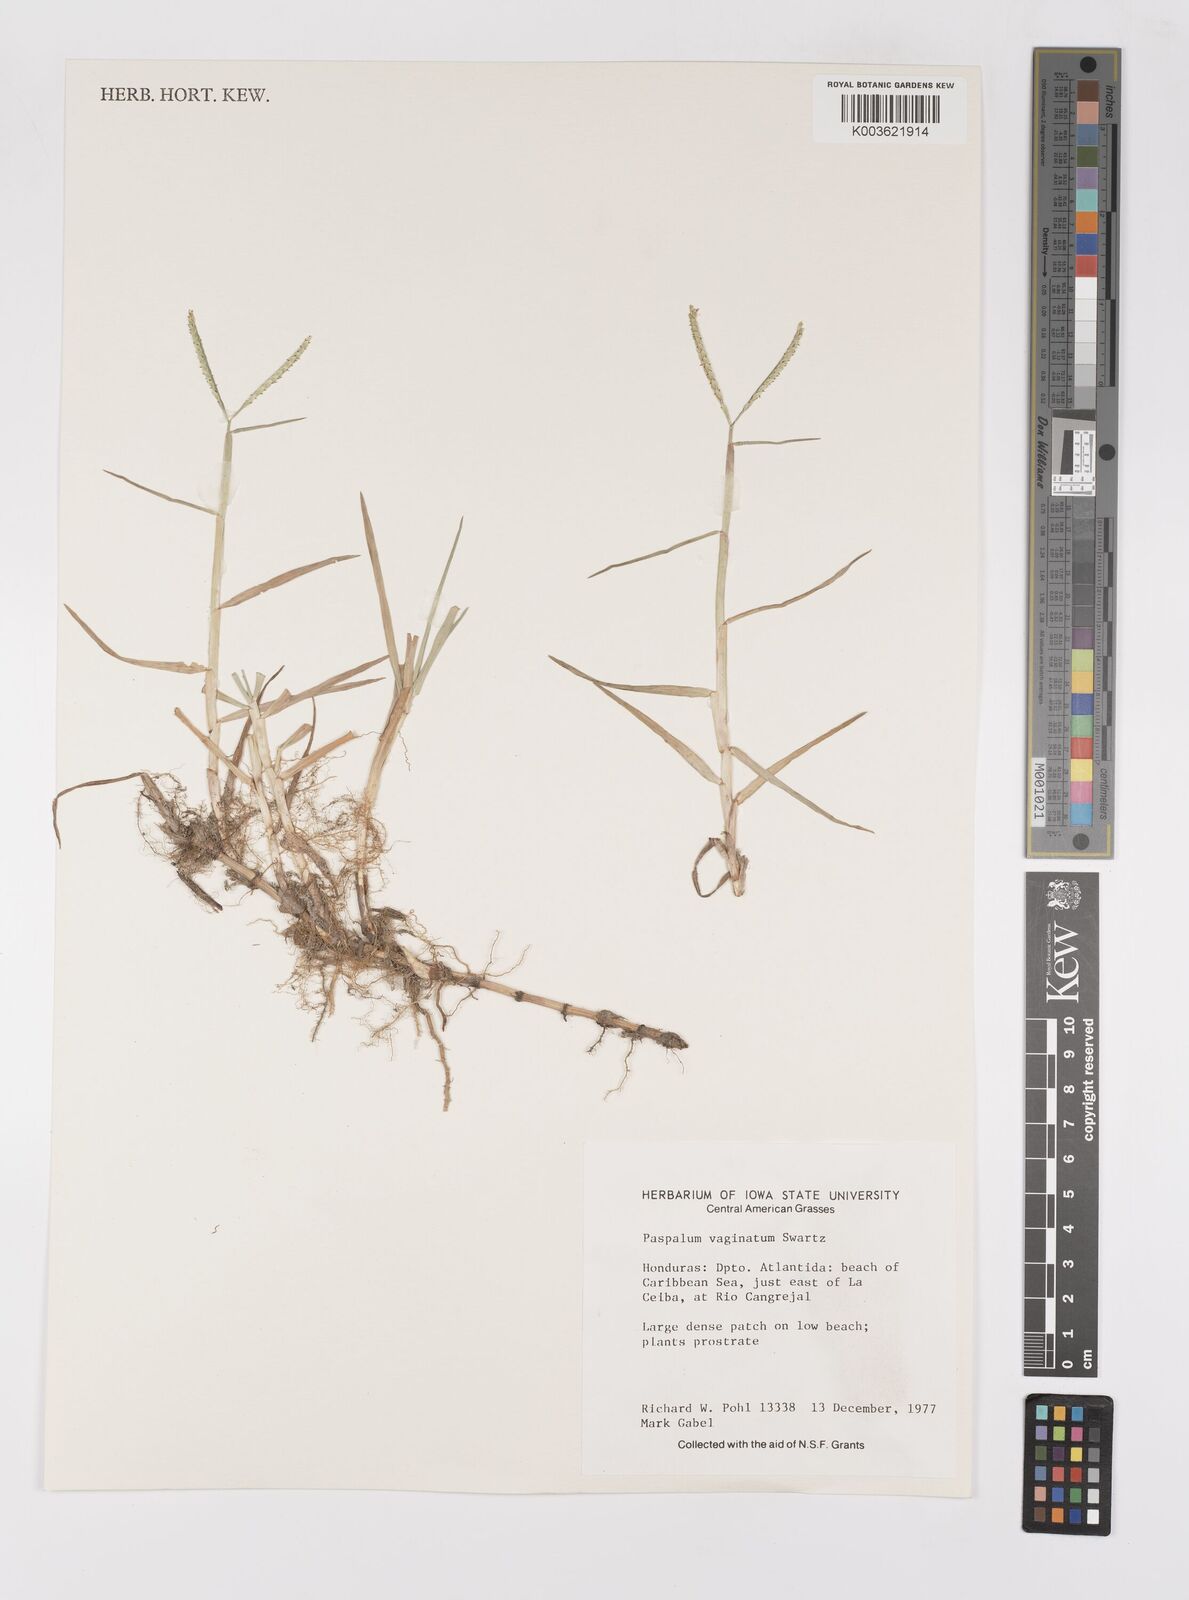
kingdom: Plantae
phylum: Tracheophyta
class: Liliopsida
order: Poales
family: Poaceae
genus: Paspalum
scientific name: Paspalum vaginatum
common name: Seashore paspalum
